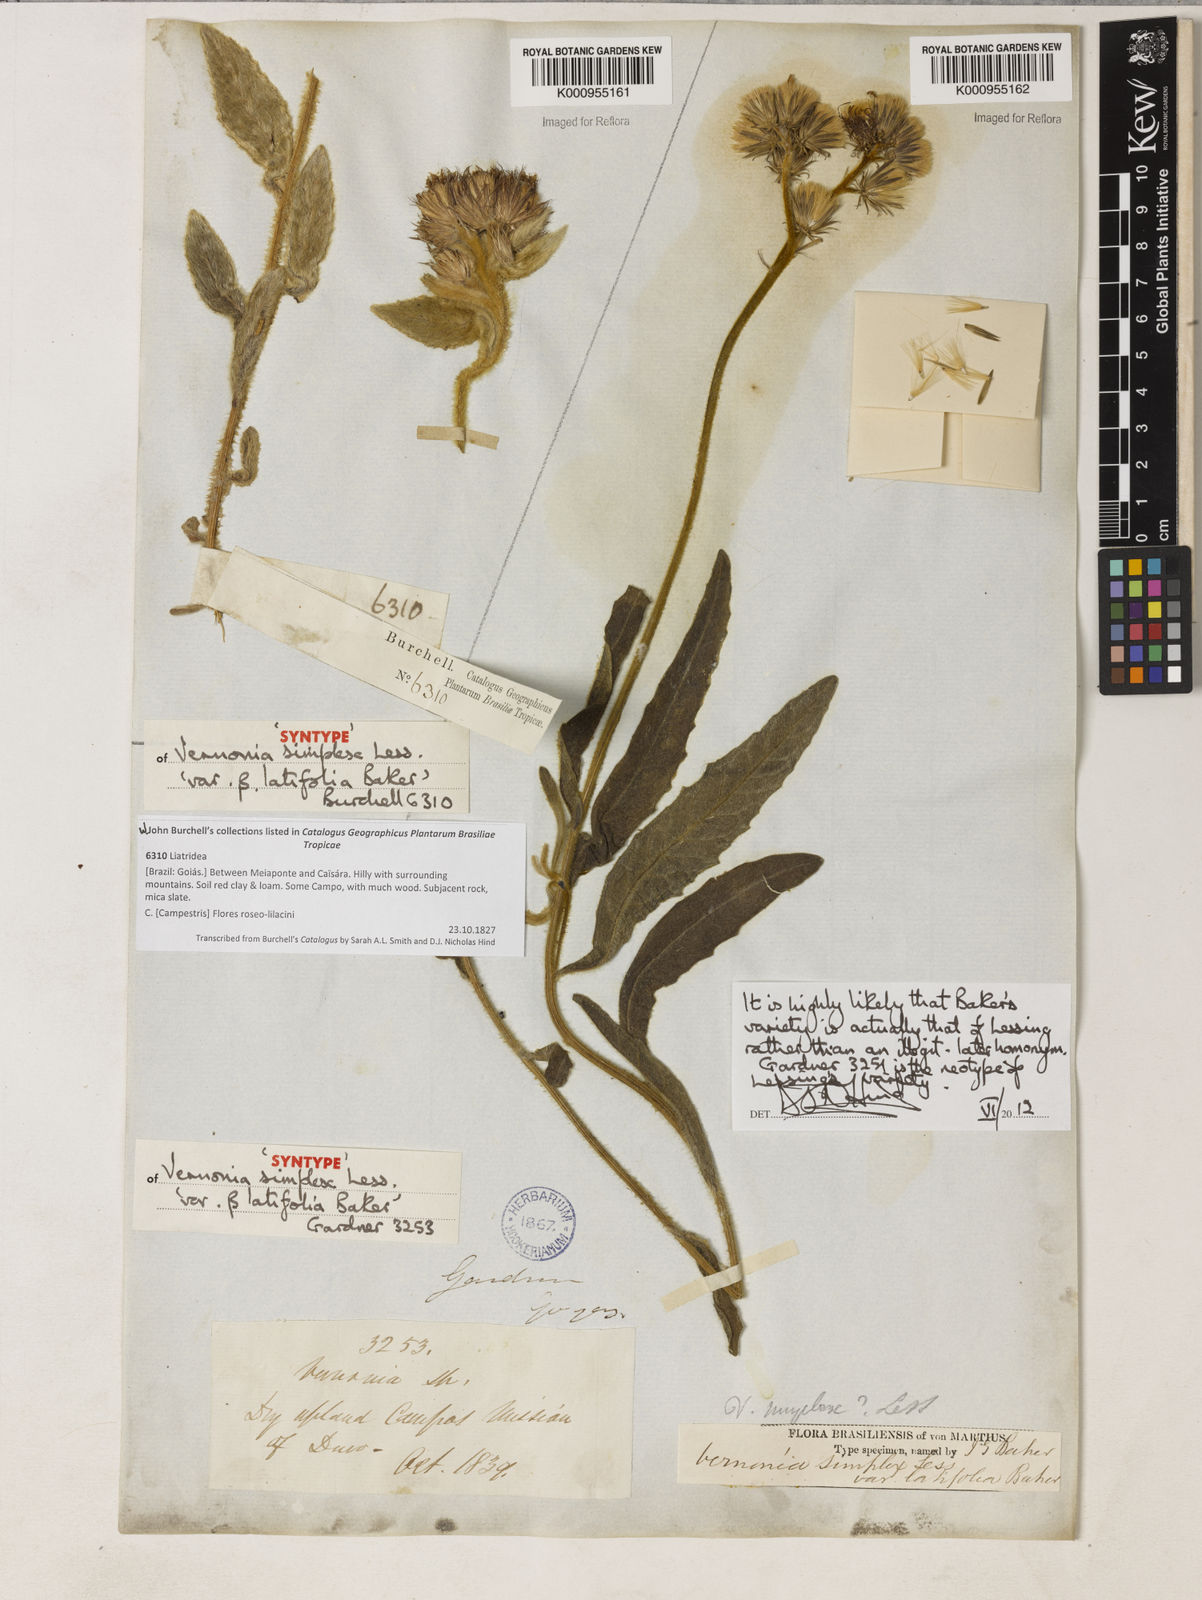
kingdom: Plantae
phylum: Tracheophyta
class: Magnoliopsida
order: Asterales
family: Asteraceae
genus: Chrysolaena
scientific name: Chrysolaena simplex
